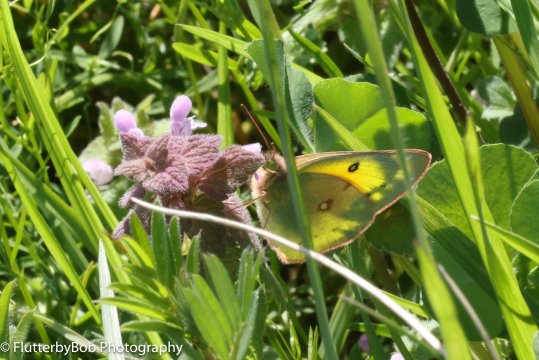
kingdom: Animalia
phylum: Arthropoda
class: Insecta
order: Lepidoptera
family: Pieridae
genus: Colias
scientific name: Colias eurytheme
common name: Orange Sulphur
